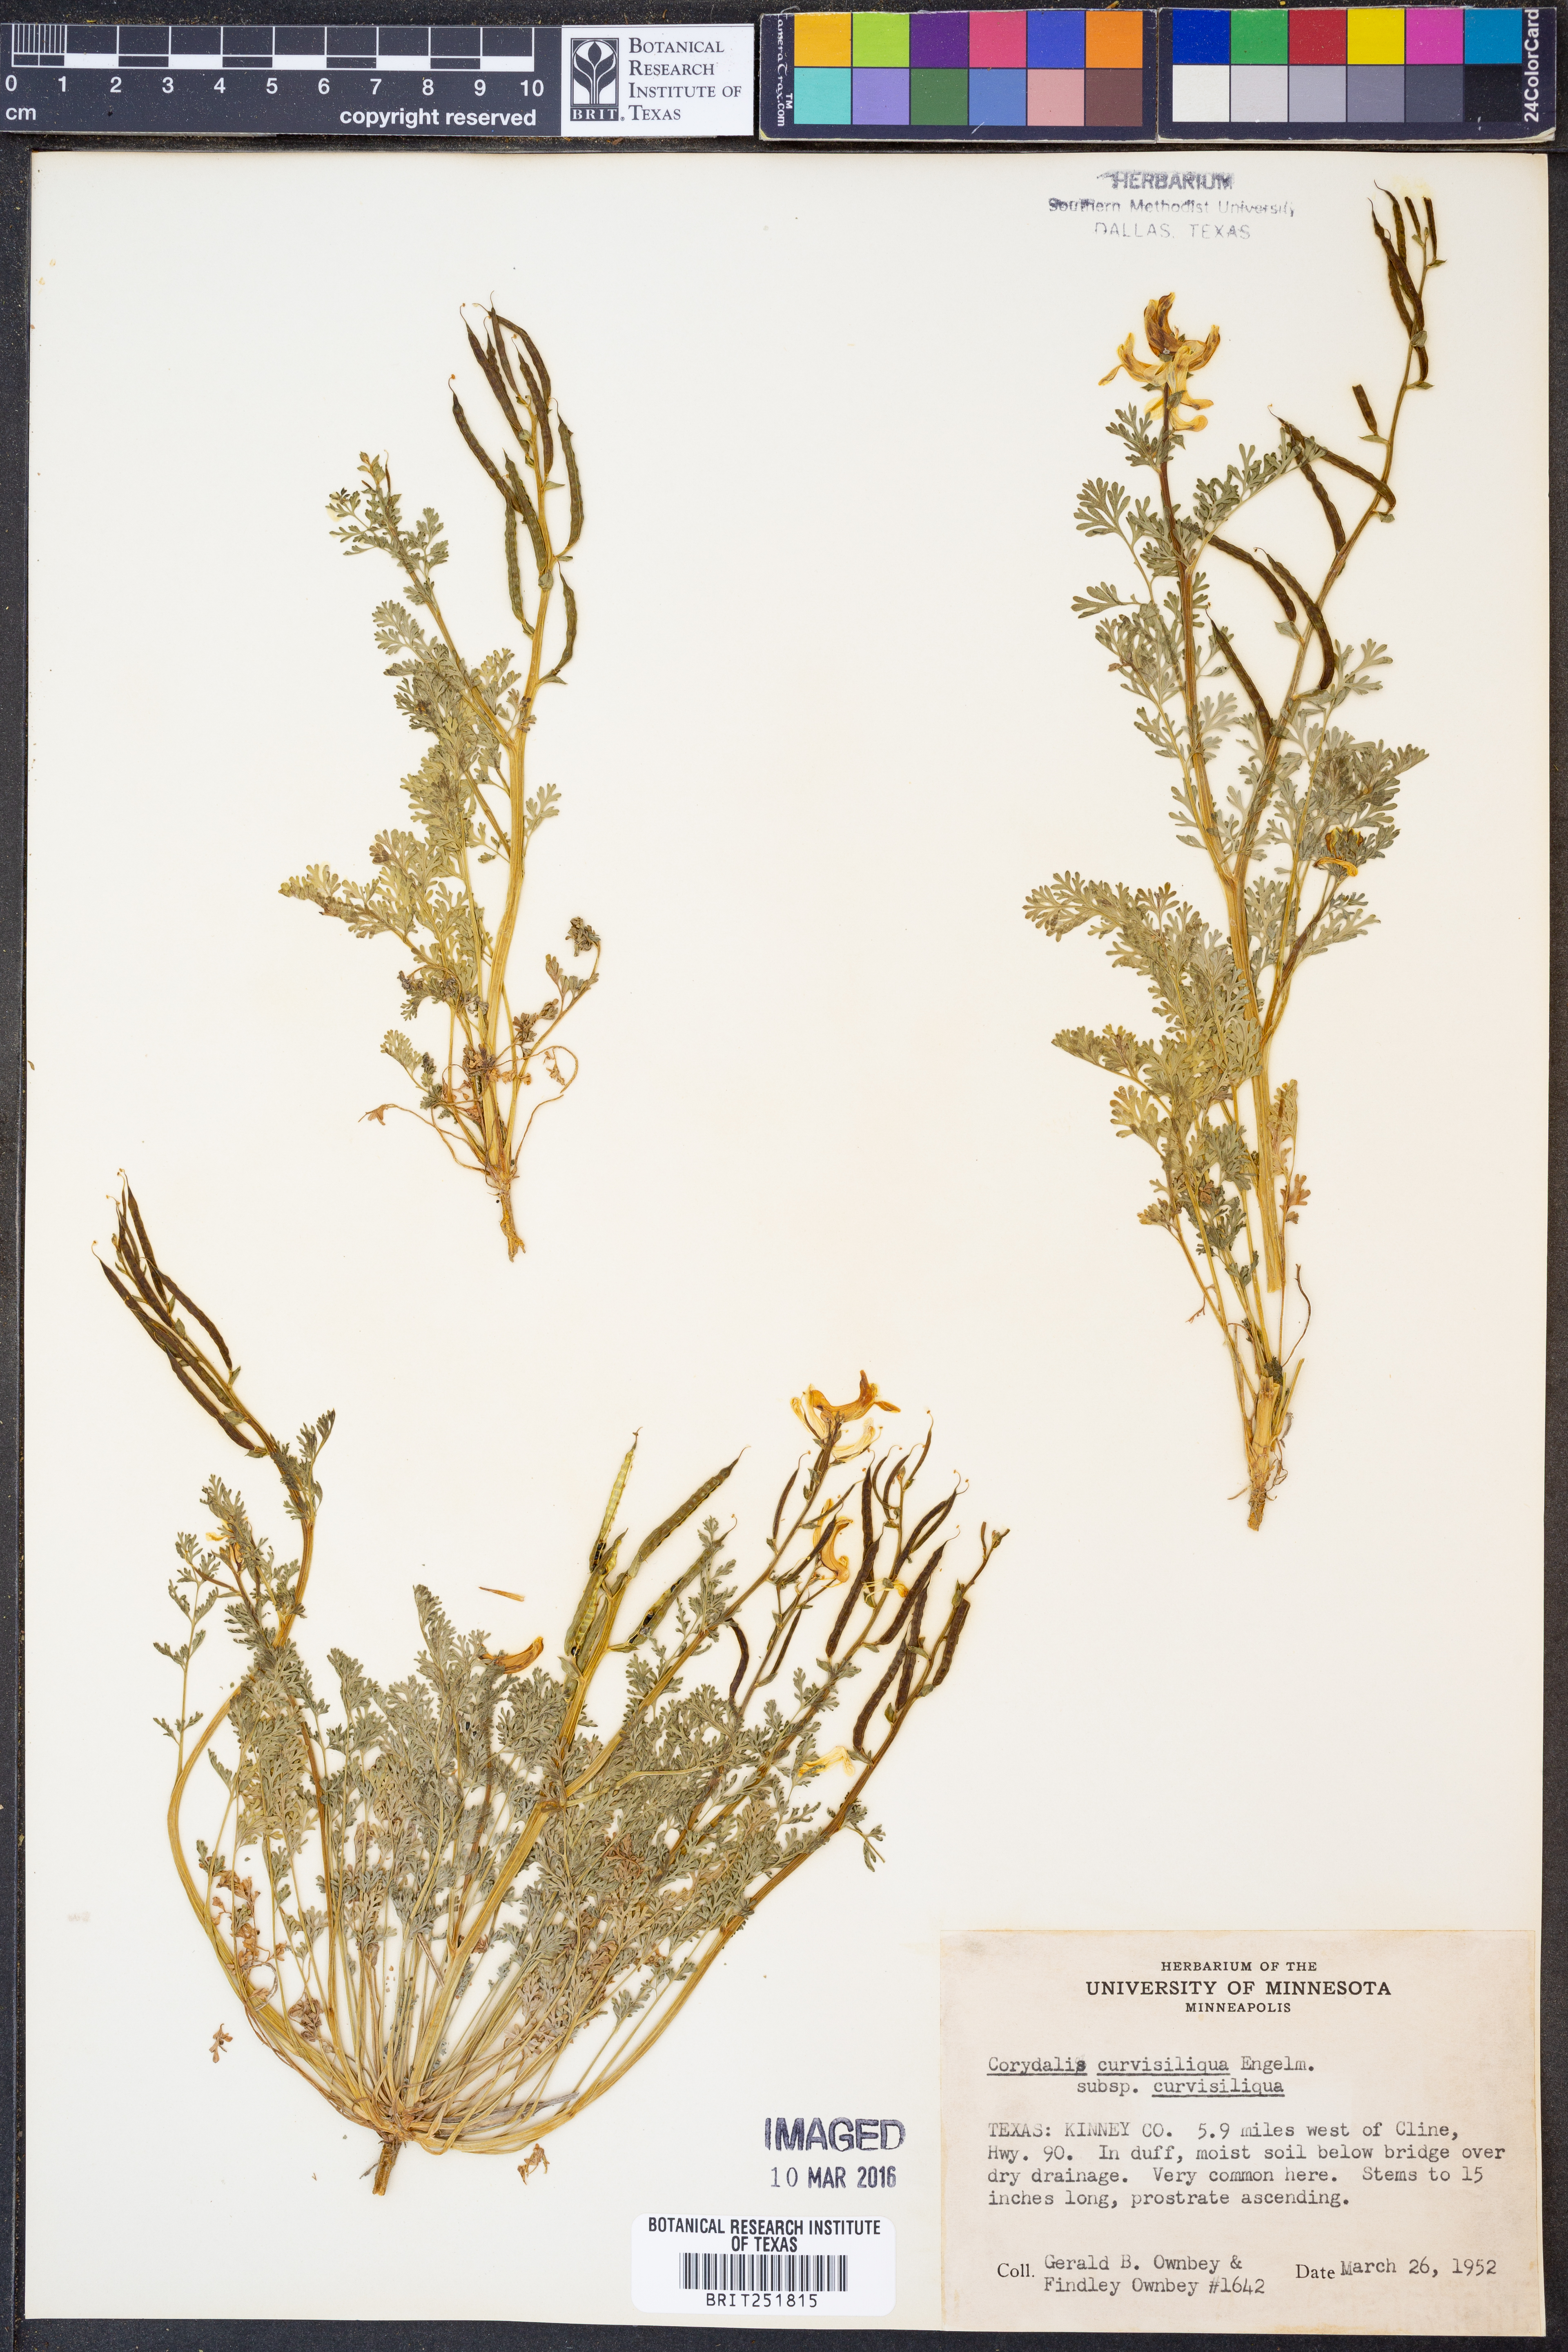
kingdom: Plantae
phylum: Tracheophyta
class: Magnoliopsida
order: Ranunculales
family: Papaveraceae
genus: Corydalis
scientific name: Corydalis curvisiliqua
